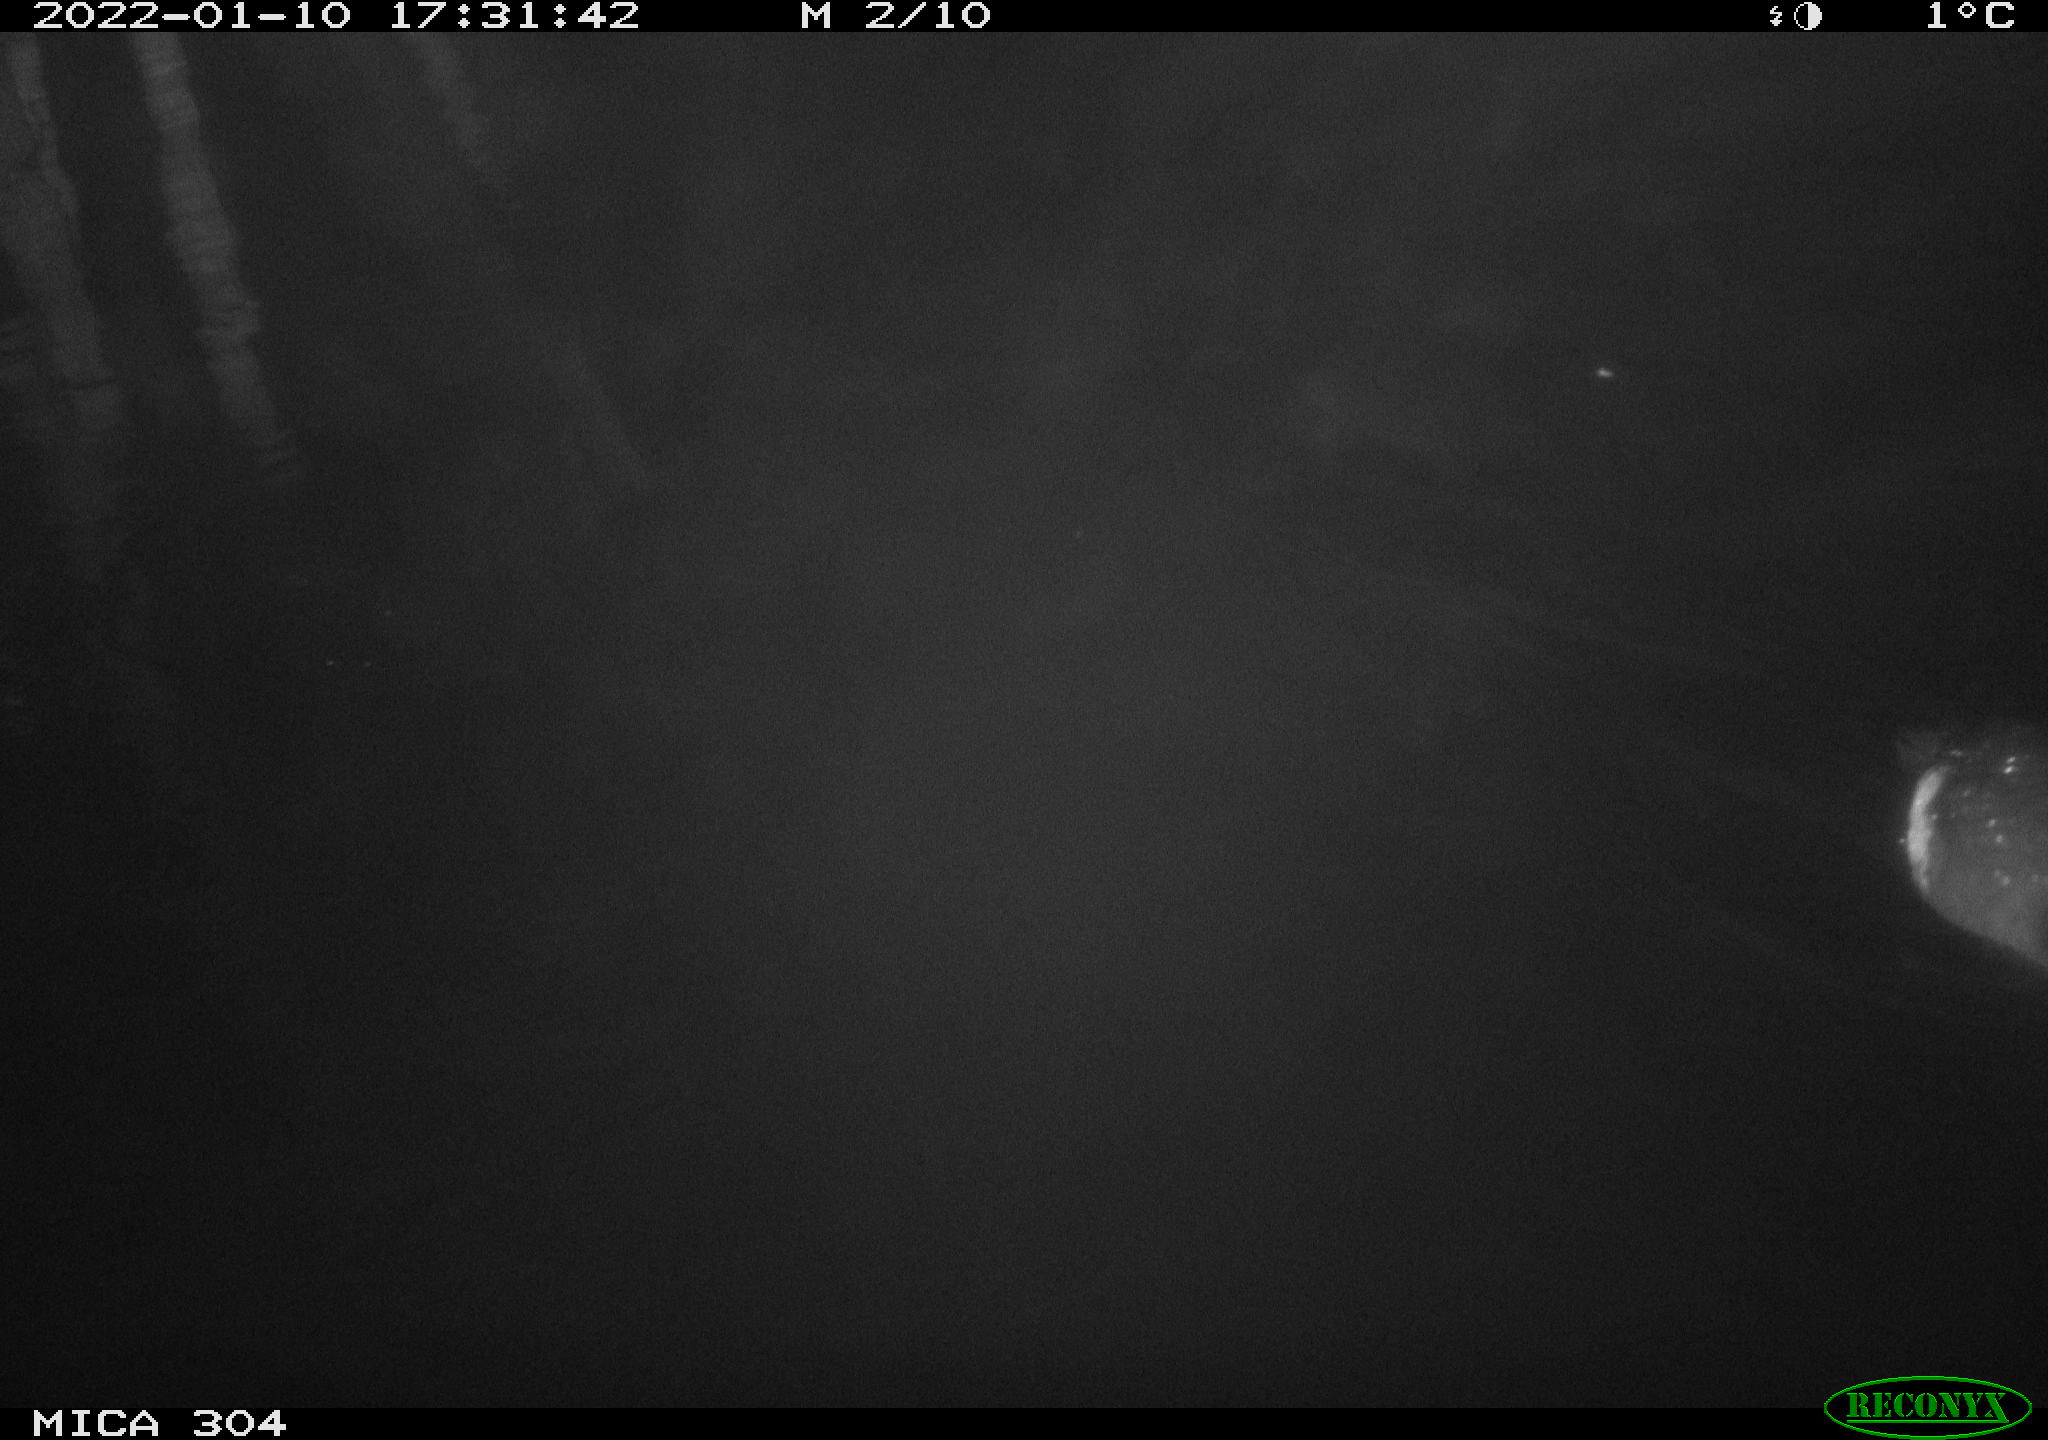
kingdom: Animalia
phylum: Chordata
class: Aves
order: Anseriformes
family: Anatidae
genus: Anas
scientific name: Anas
